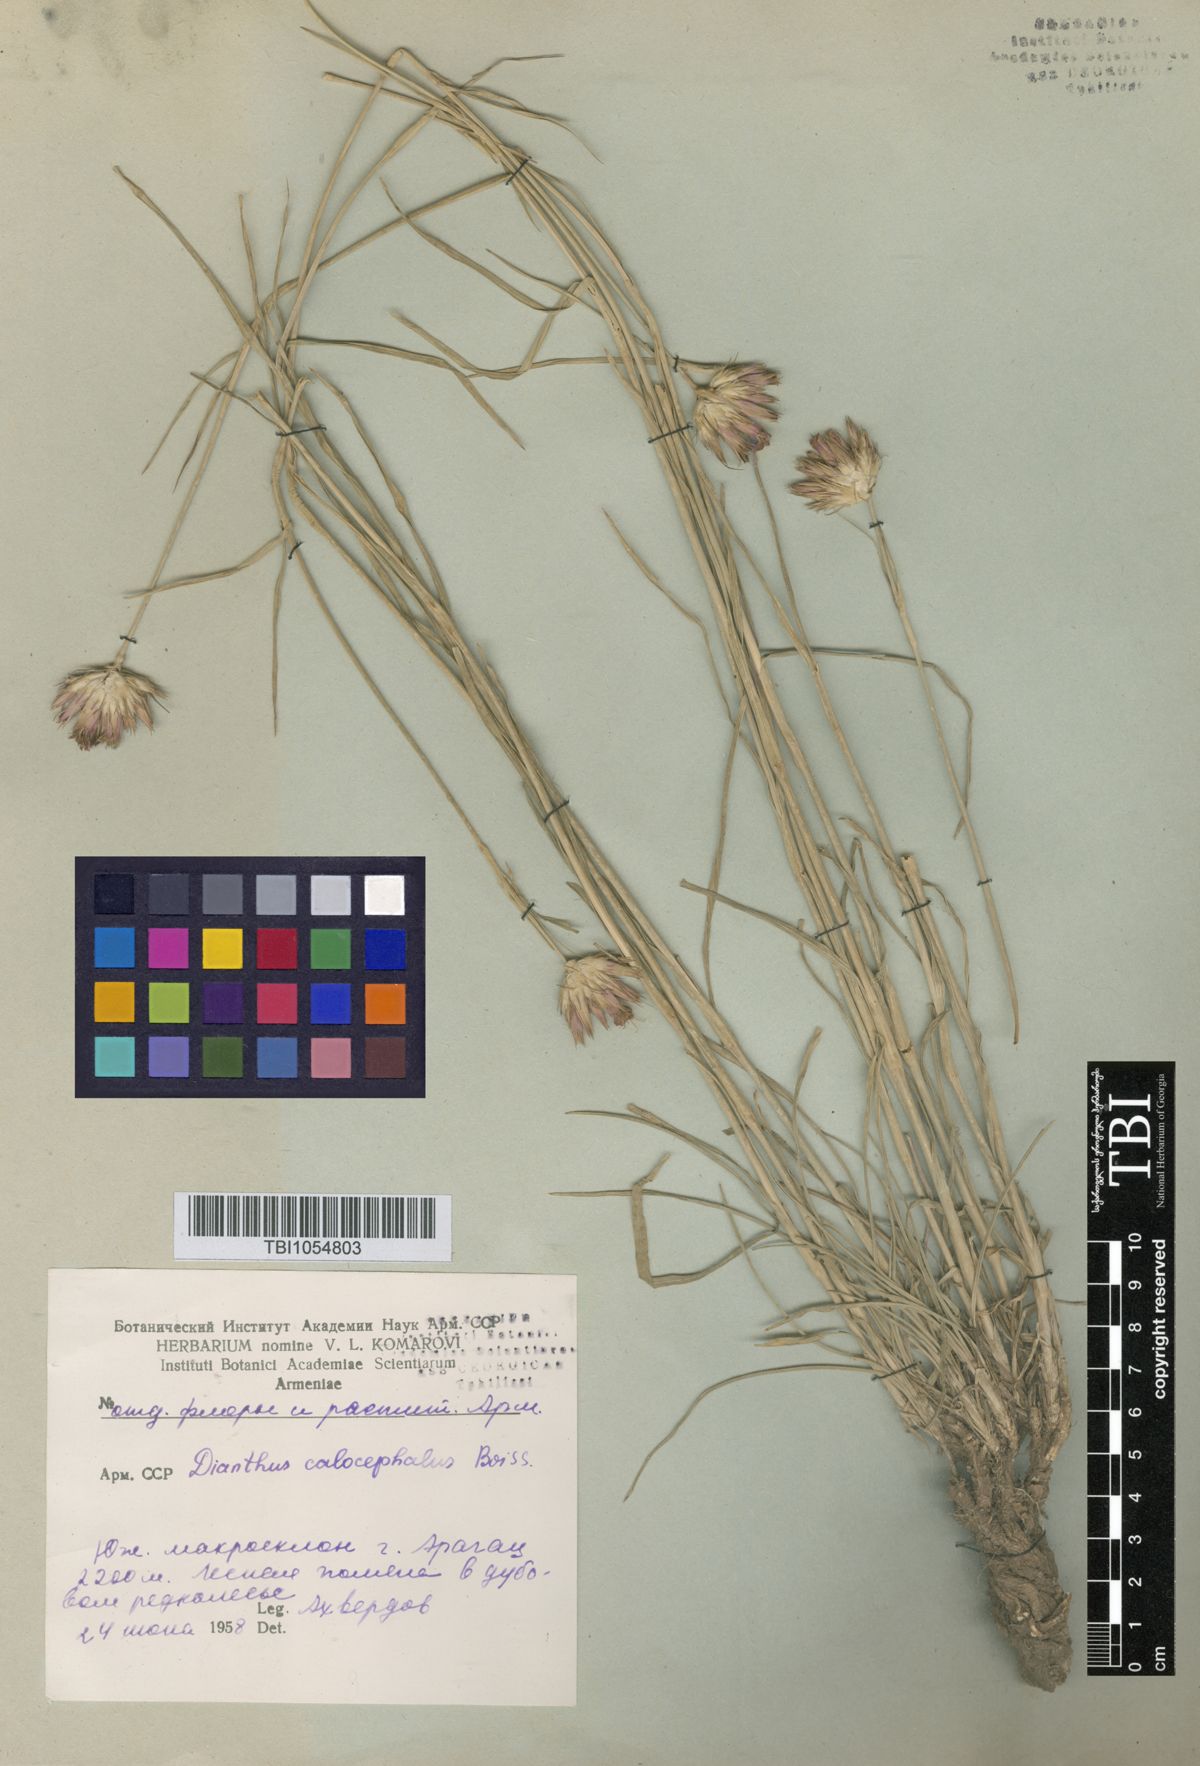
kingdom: Plantae
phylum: Tracheophyta
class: Magnoliopsida
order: Caryophyllales
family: Caryophyllaceae
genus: Dianthus
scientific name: Dianthus cruentus
